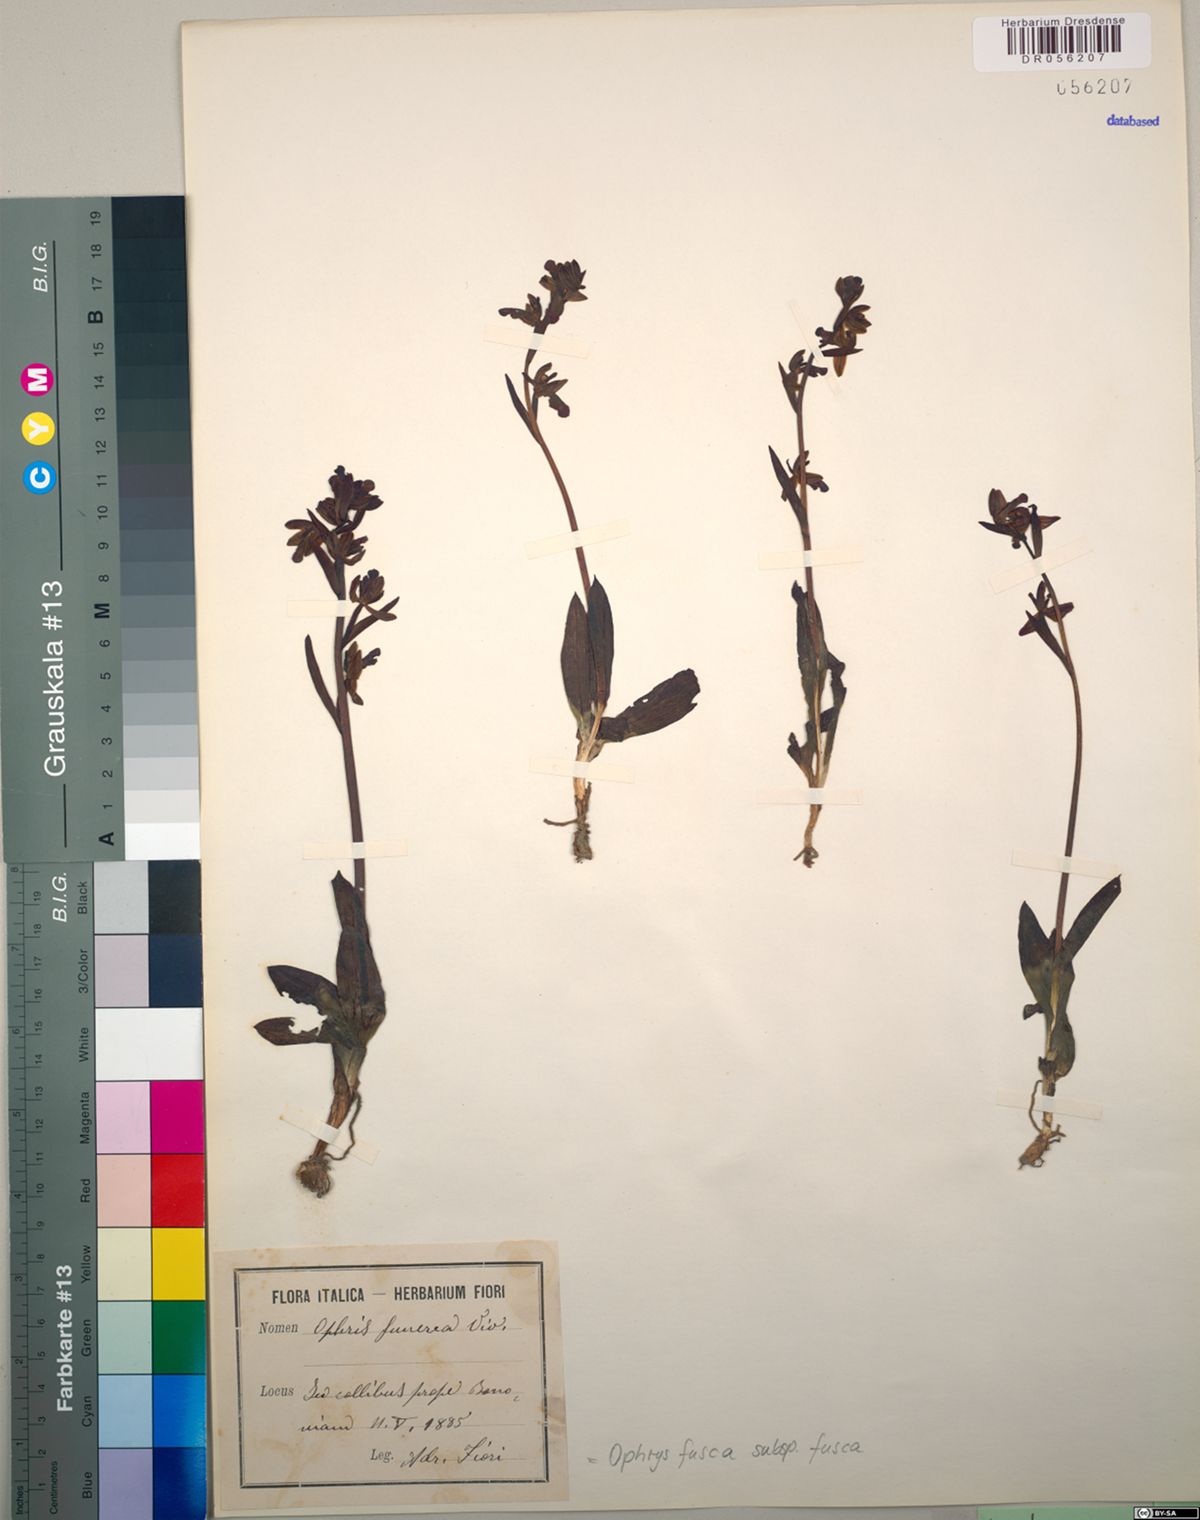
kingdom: Plantae
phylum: Tracheophyta
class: Liliopsida
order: Asparagales
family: Orchidaceae
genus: Ophrys
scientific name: Ophrys fusca
